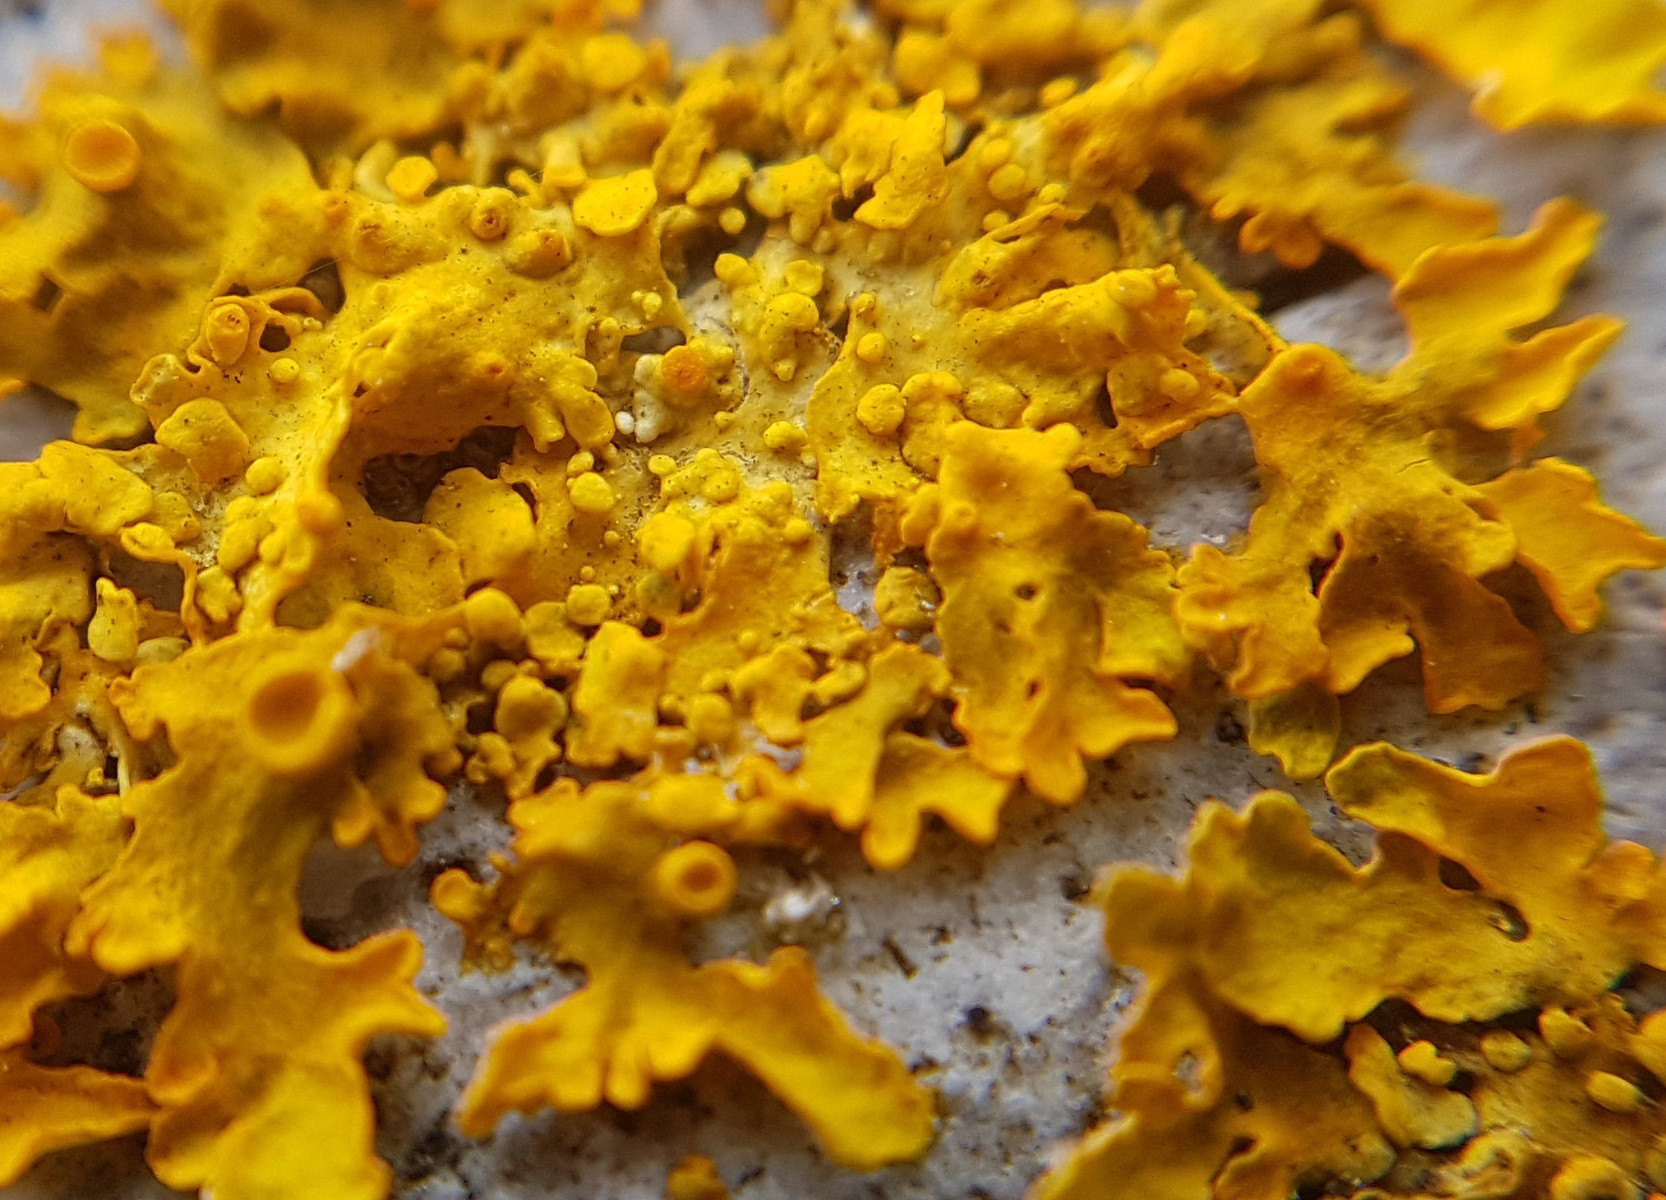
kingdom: Fungi
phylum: Ascomycota
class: Lecanoromycetes
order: Teloschistales
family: Teloschistaceae
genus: Xanthoria
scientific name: Xanthoria parietina
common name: almindelig væggelav
